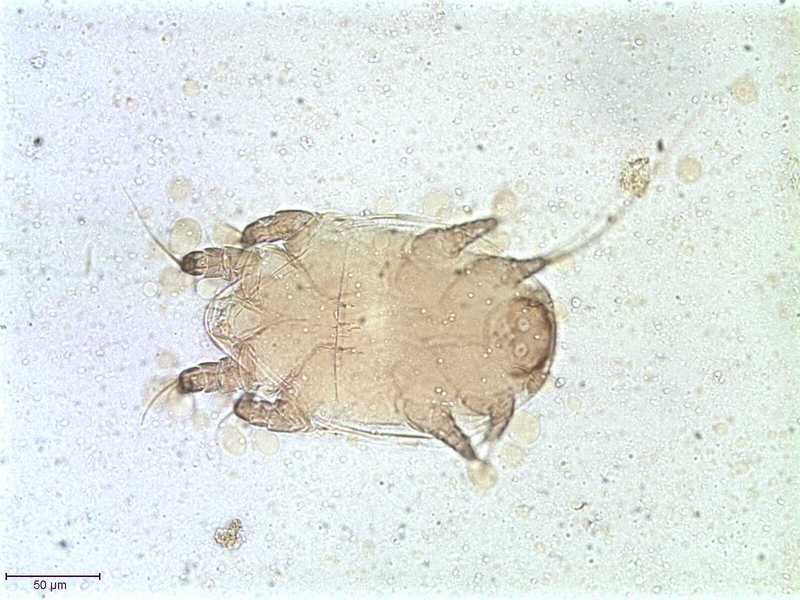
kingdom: Animalia
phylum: Hemichordata
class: Enteropneusta
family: Harrimaniidae
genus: Horstia
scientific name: Horstia
